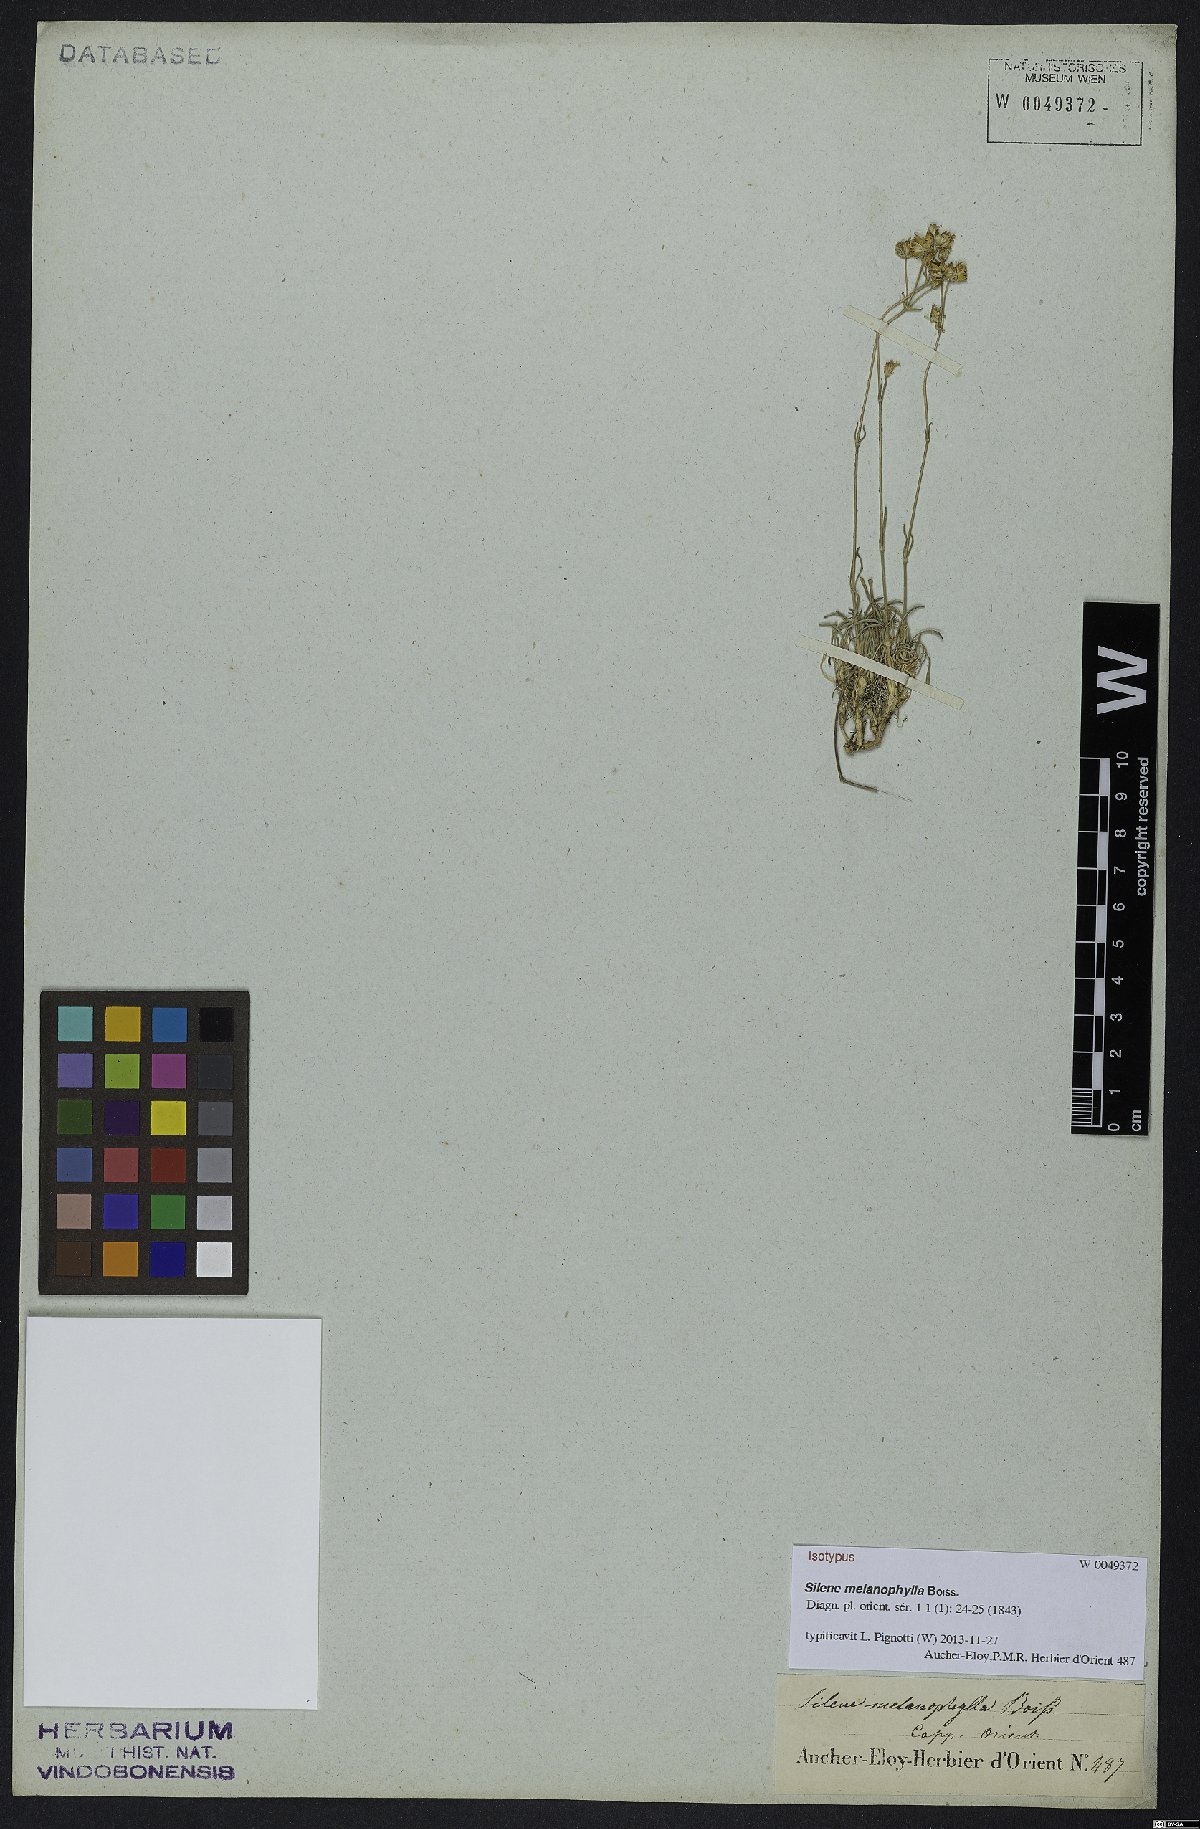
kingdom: Plantae
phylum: Tracheophyta
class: Magnoliopsida
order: Caryophyllales
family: Caryophyllaceae
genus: Silene
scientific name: Silene dianthoides
